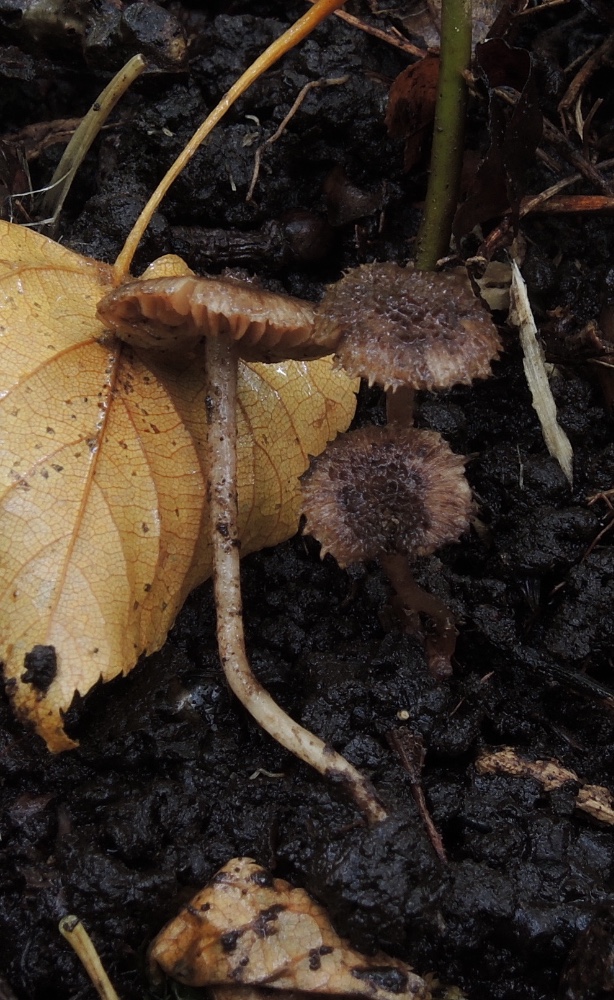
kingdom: Fungi
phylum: Basidiomycota
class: Agaricomycetes
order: Agaricales
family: Inocybaceae
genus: Inocybe
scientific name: Inocybe cincinnata
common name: lillabladet trævlhat
